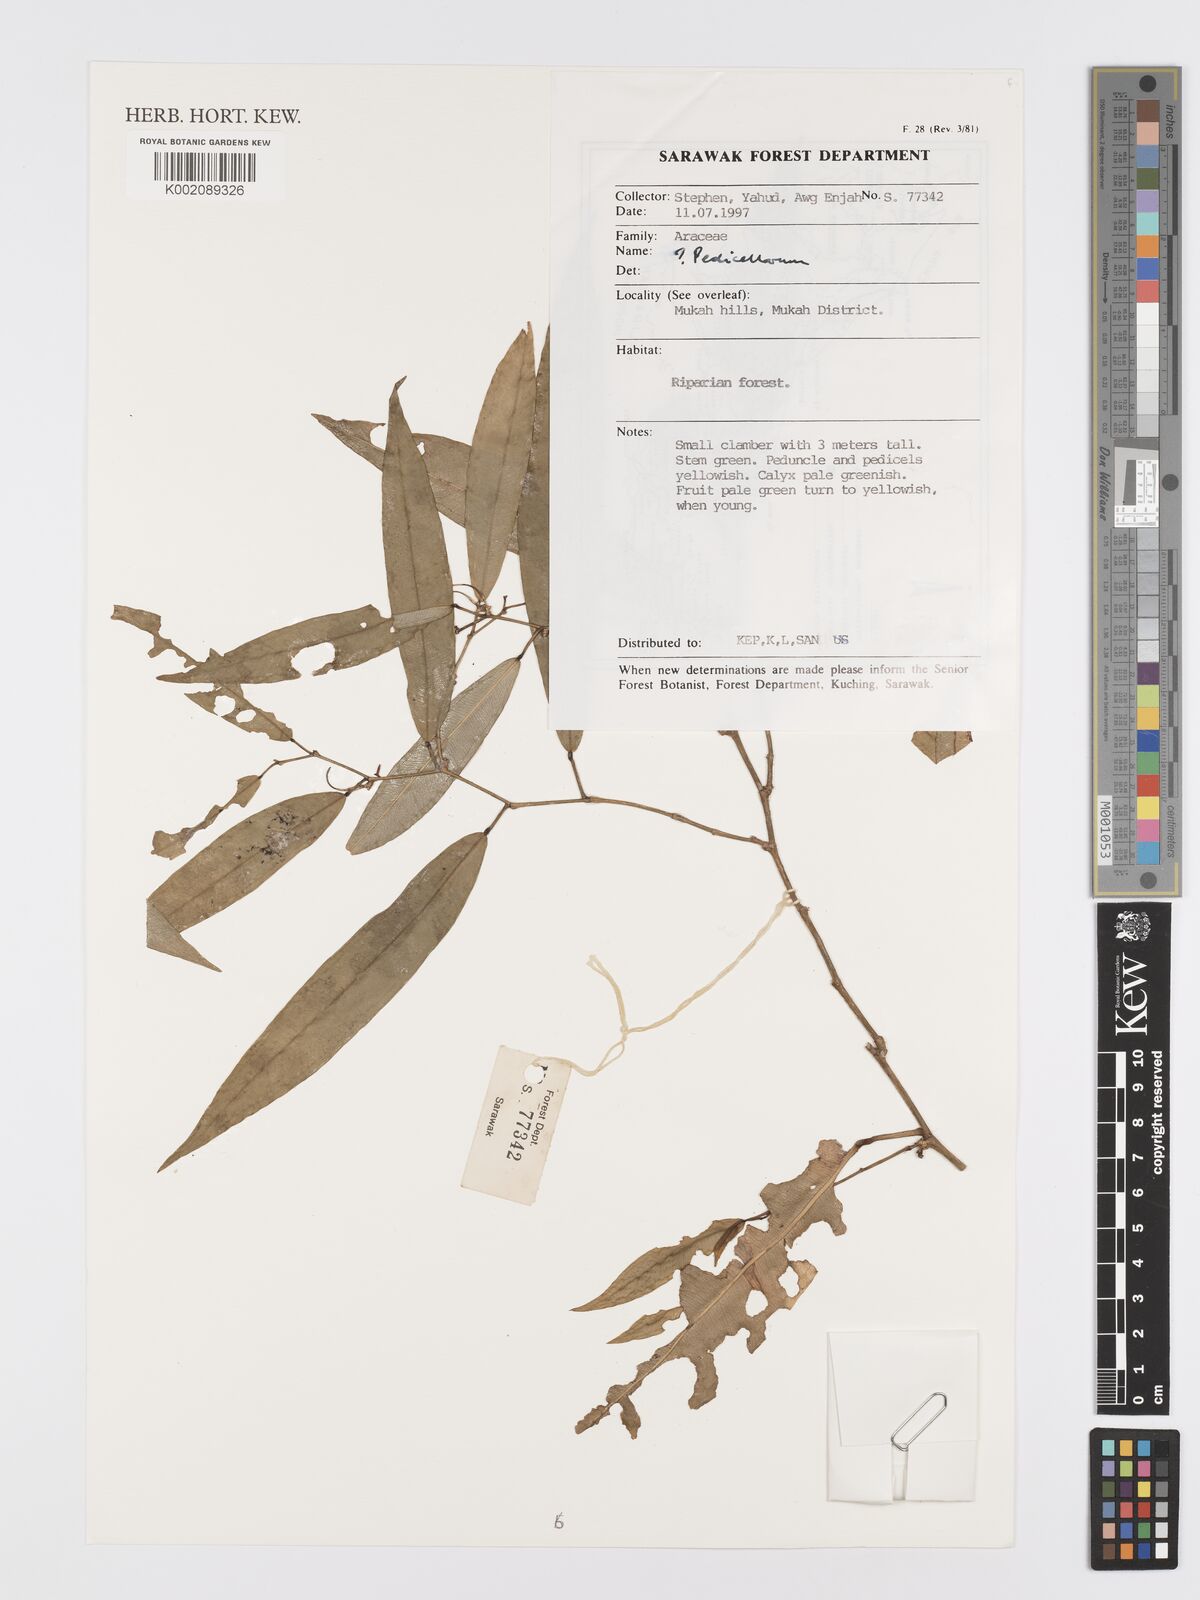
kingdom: Plantae
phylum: Tracheophyta
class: Liliopsida
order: Alismatales
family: Araceae
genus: Pothos
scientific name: Pothos
